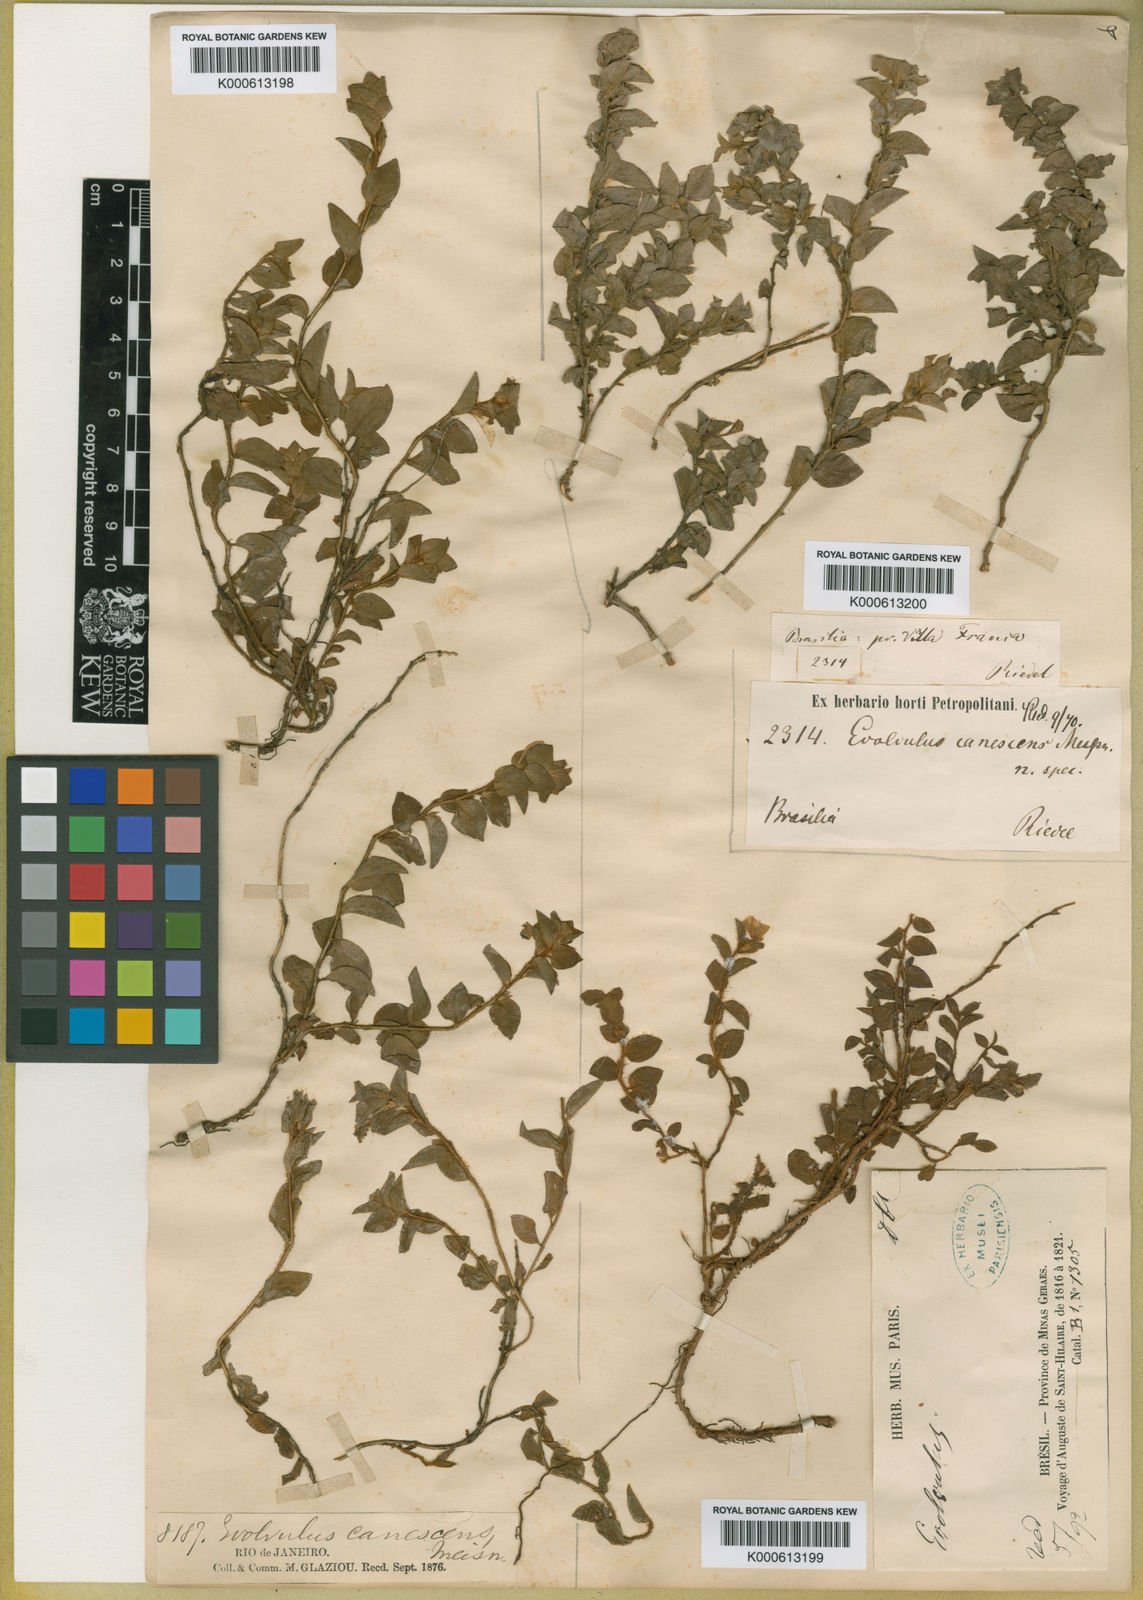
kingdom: Plantae
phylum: Tracheophyta
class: Magnoliopsida
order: Solanales
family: Convolvulaceae
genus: Evolvulus
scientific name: Evolvulus cressoides
